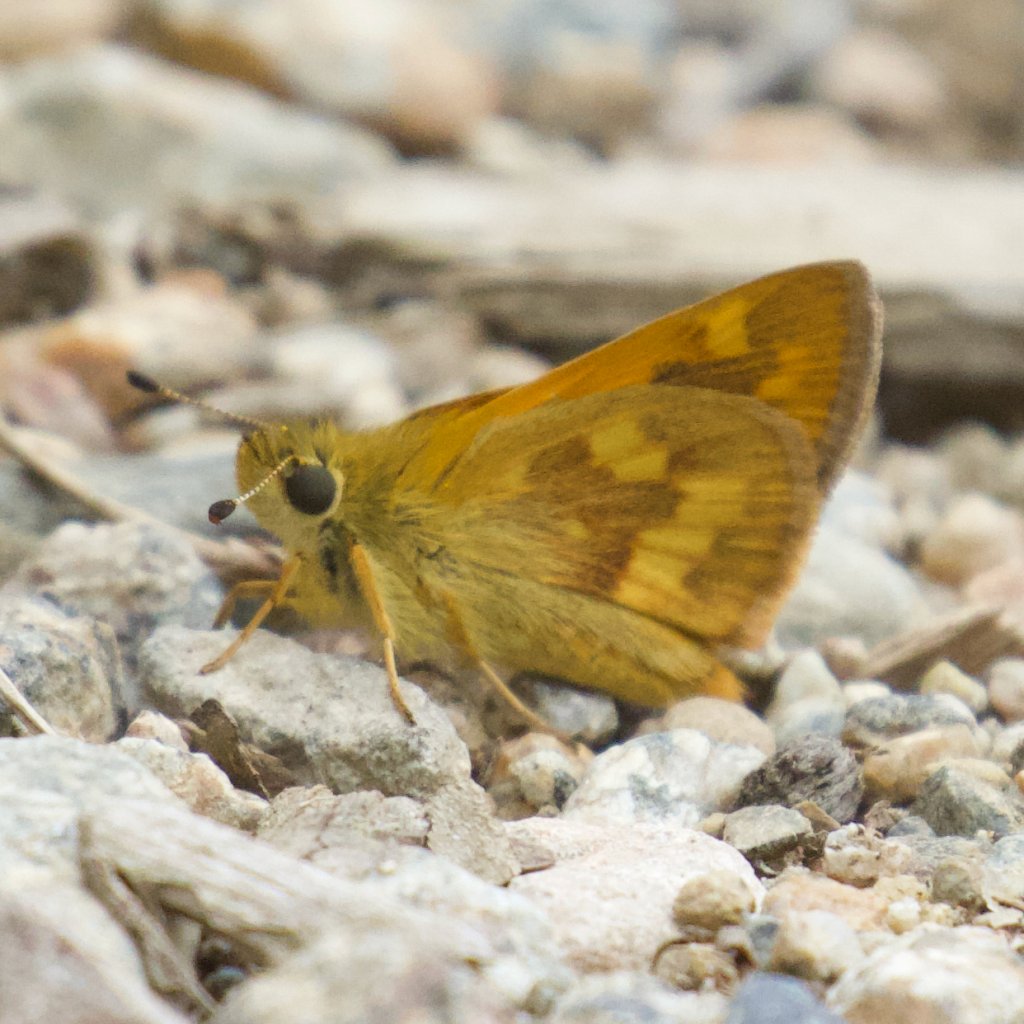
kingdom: Animalia
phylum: Arthropoda
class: Insecta
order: Lepidoptera
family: Hesperiidae
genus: Ochlodes
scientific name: Ochlodes sylvanoides
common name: Woodland Skipper
